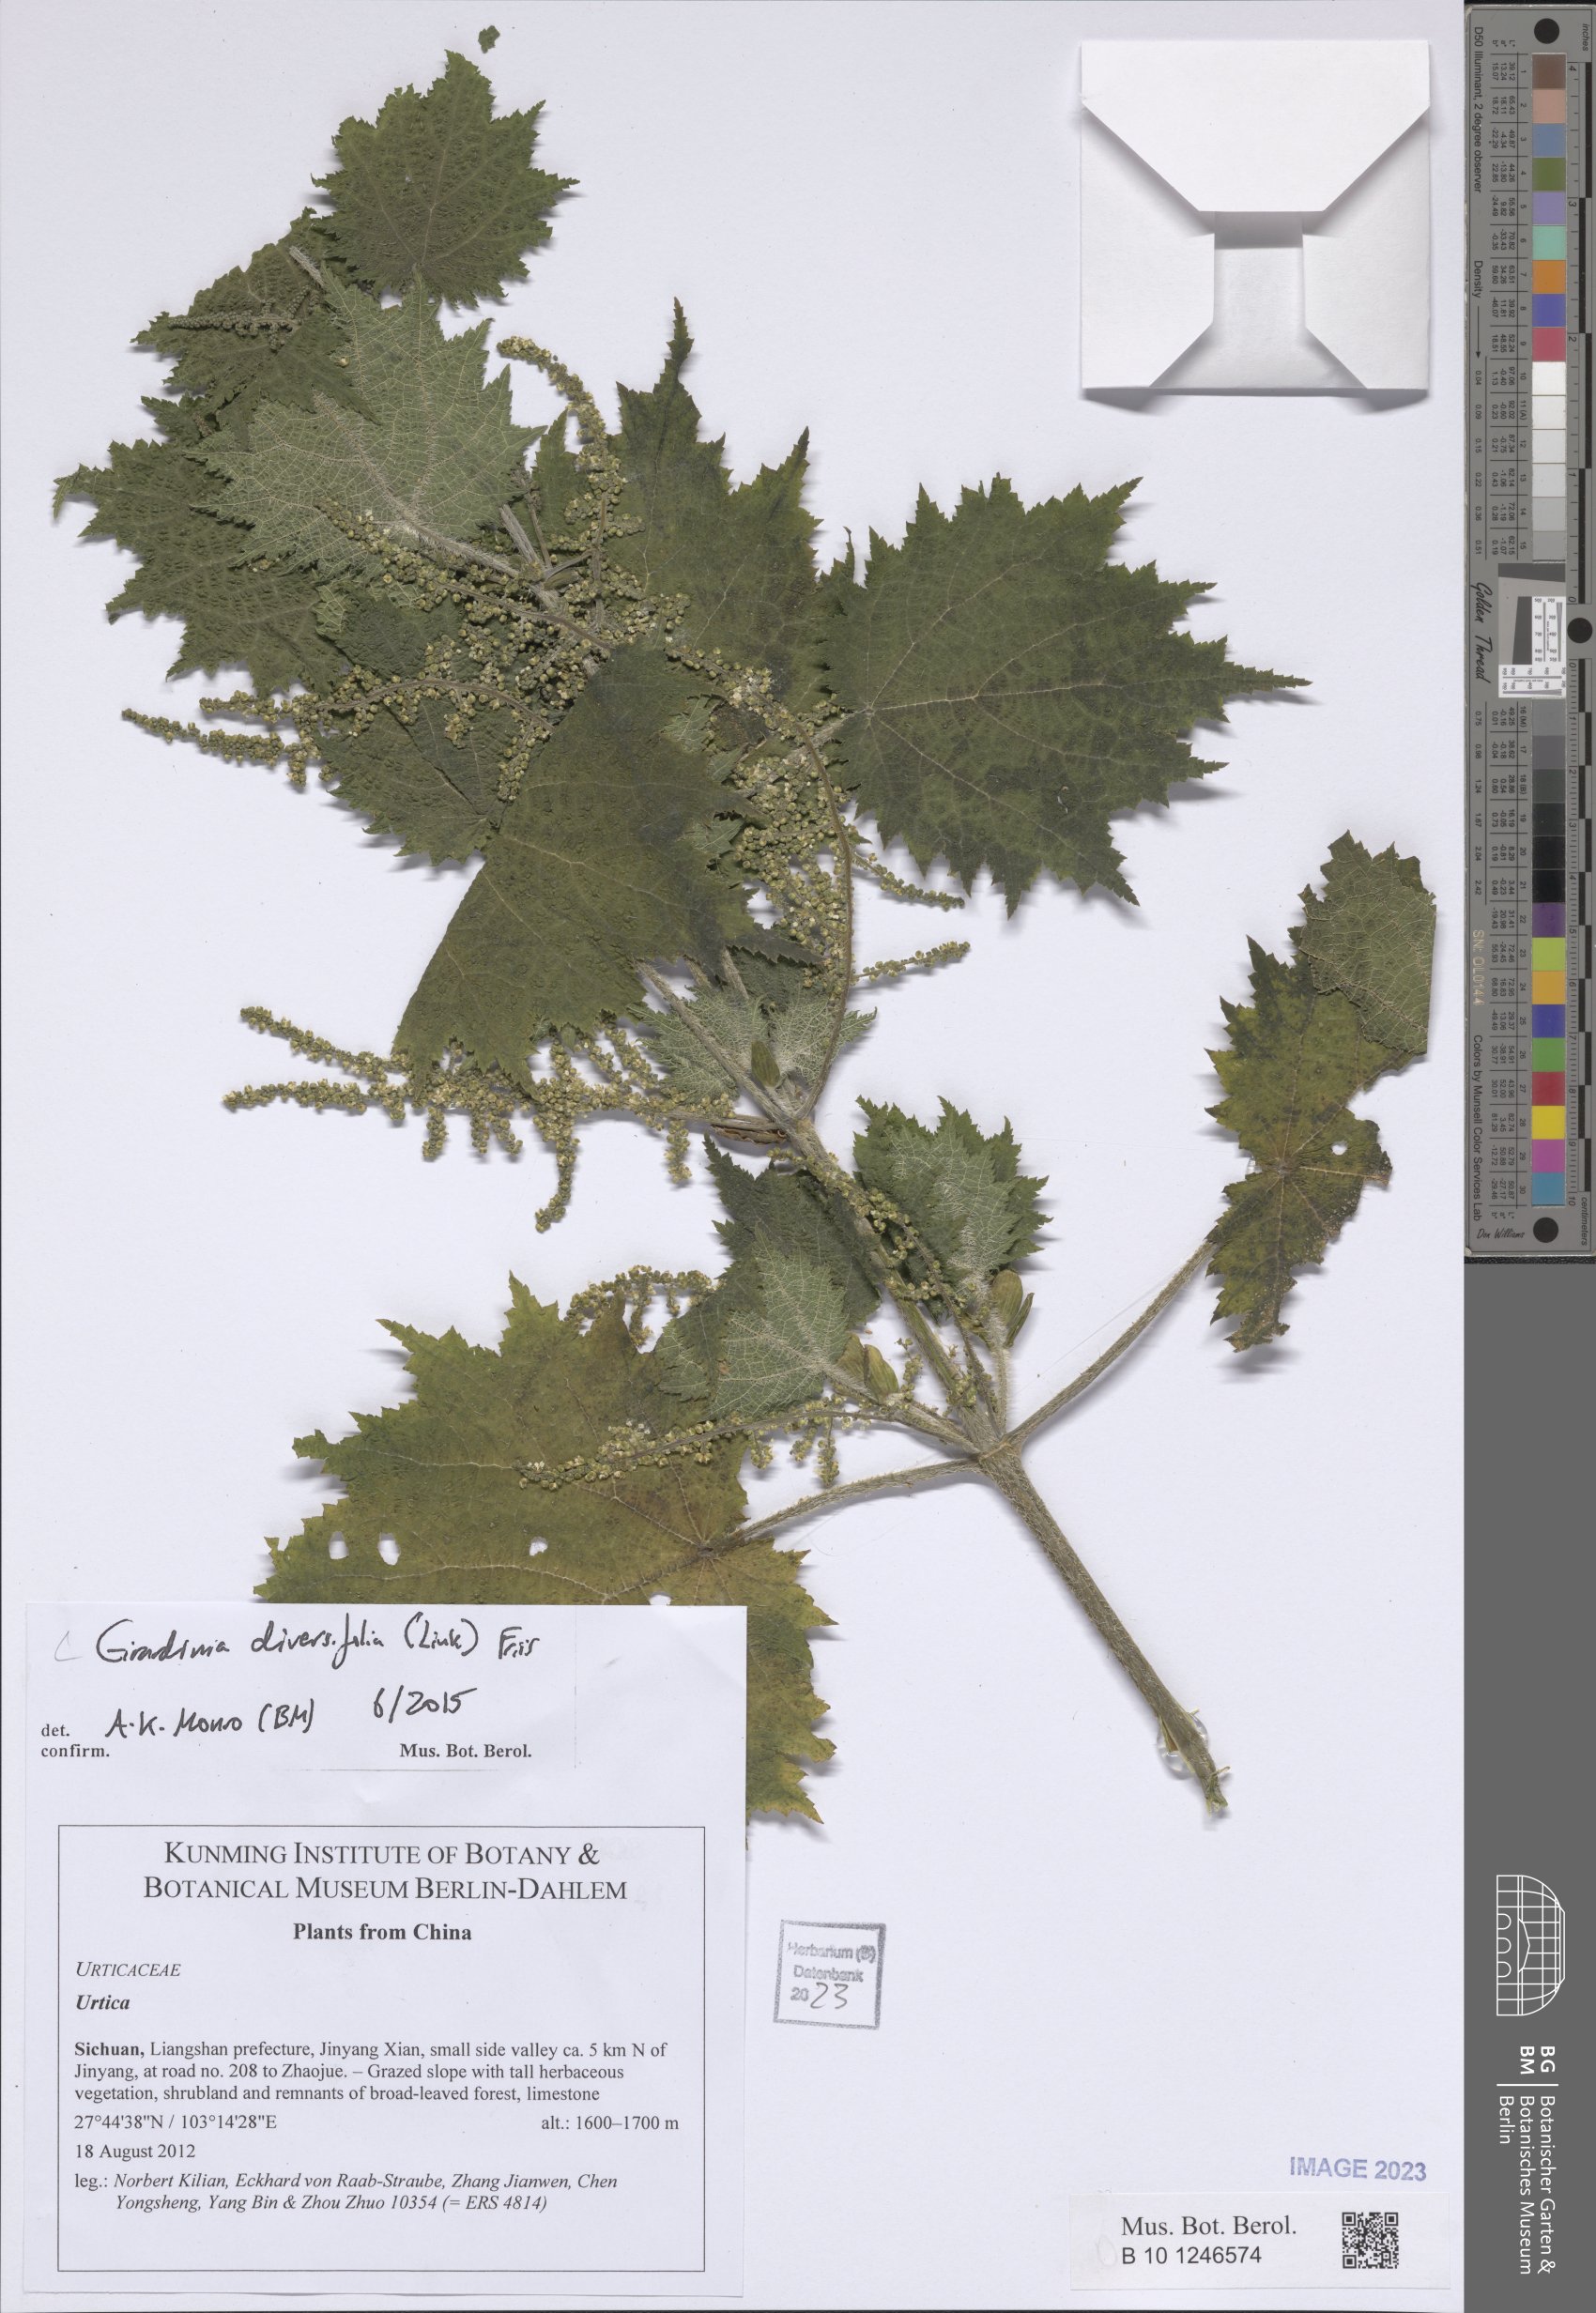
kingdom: Plantae
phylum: Tracheophyta
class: Magnoliopsida
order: Rosales
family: Urticaceae
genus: Girardinia
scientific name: Girardinia diversifolia
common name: Himalayan-nettle
